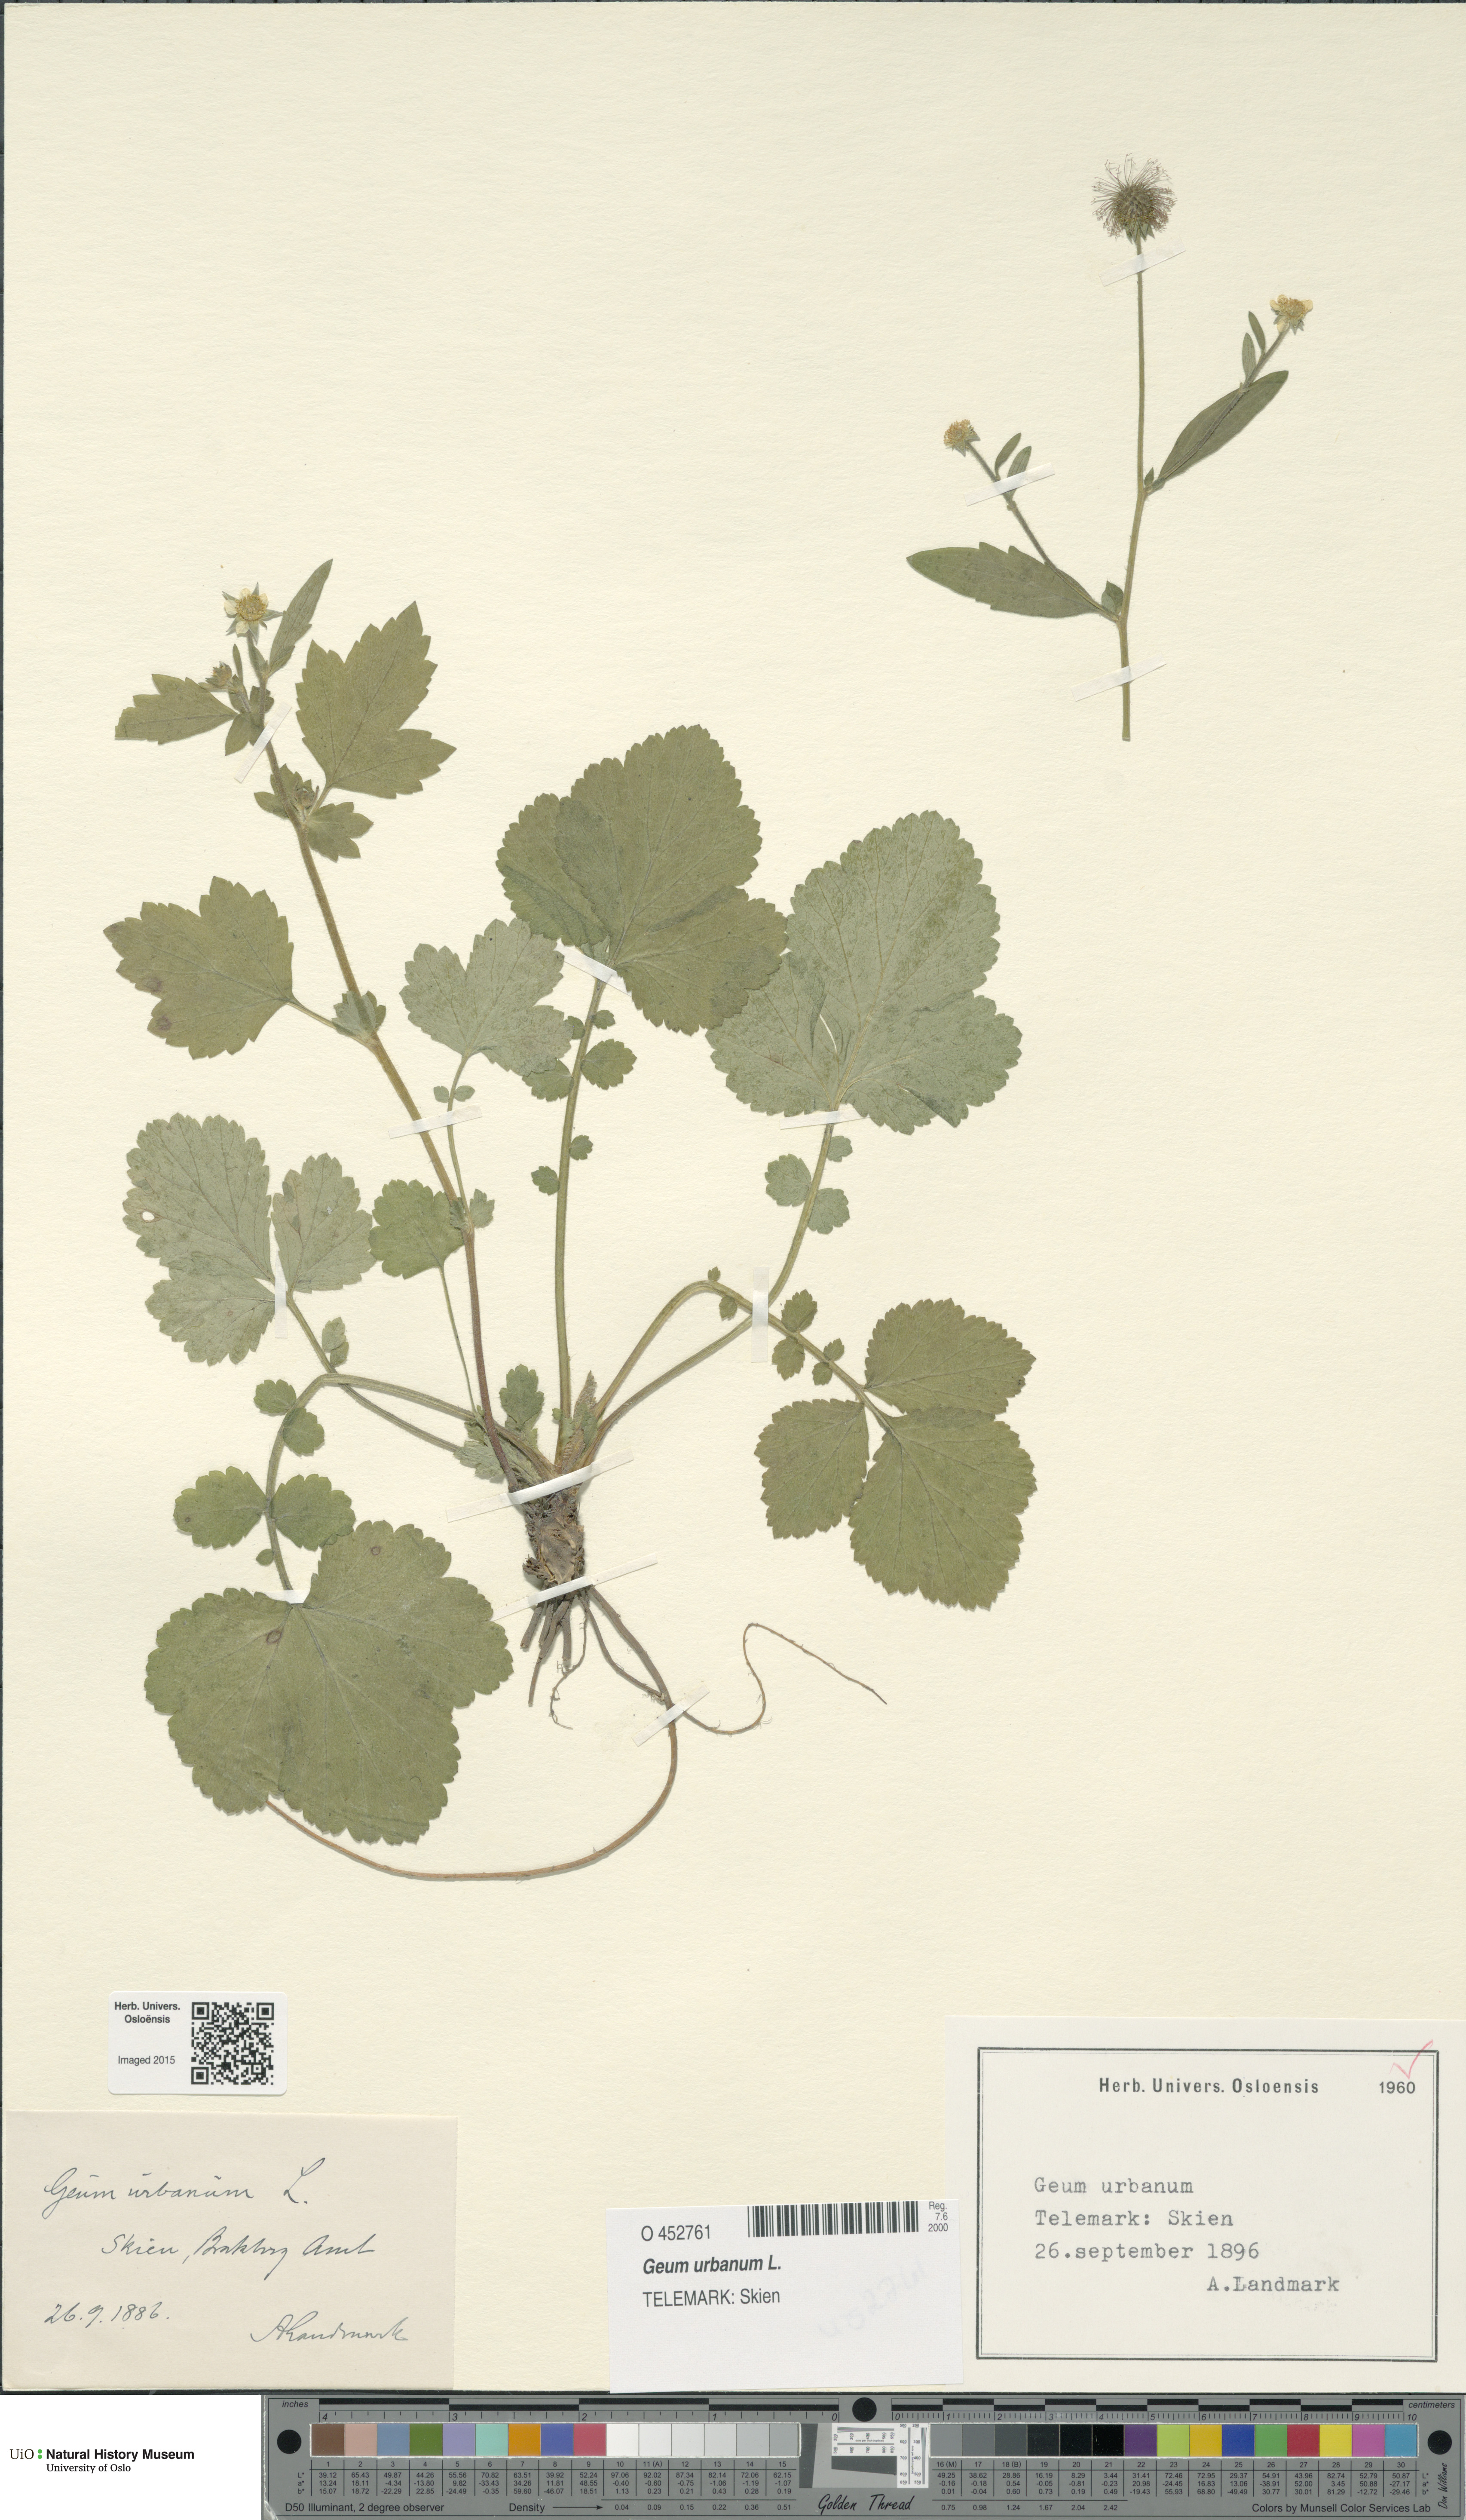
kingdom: Plantae
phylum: Tracheophyta
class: Magnoliopsida
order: Rosales
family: Rosaceae
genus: Geum
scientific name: Geum urbanum
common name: Wood avens
